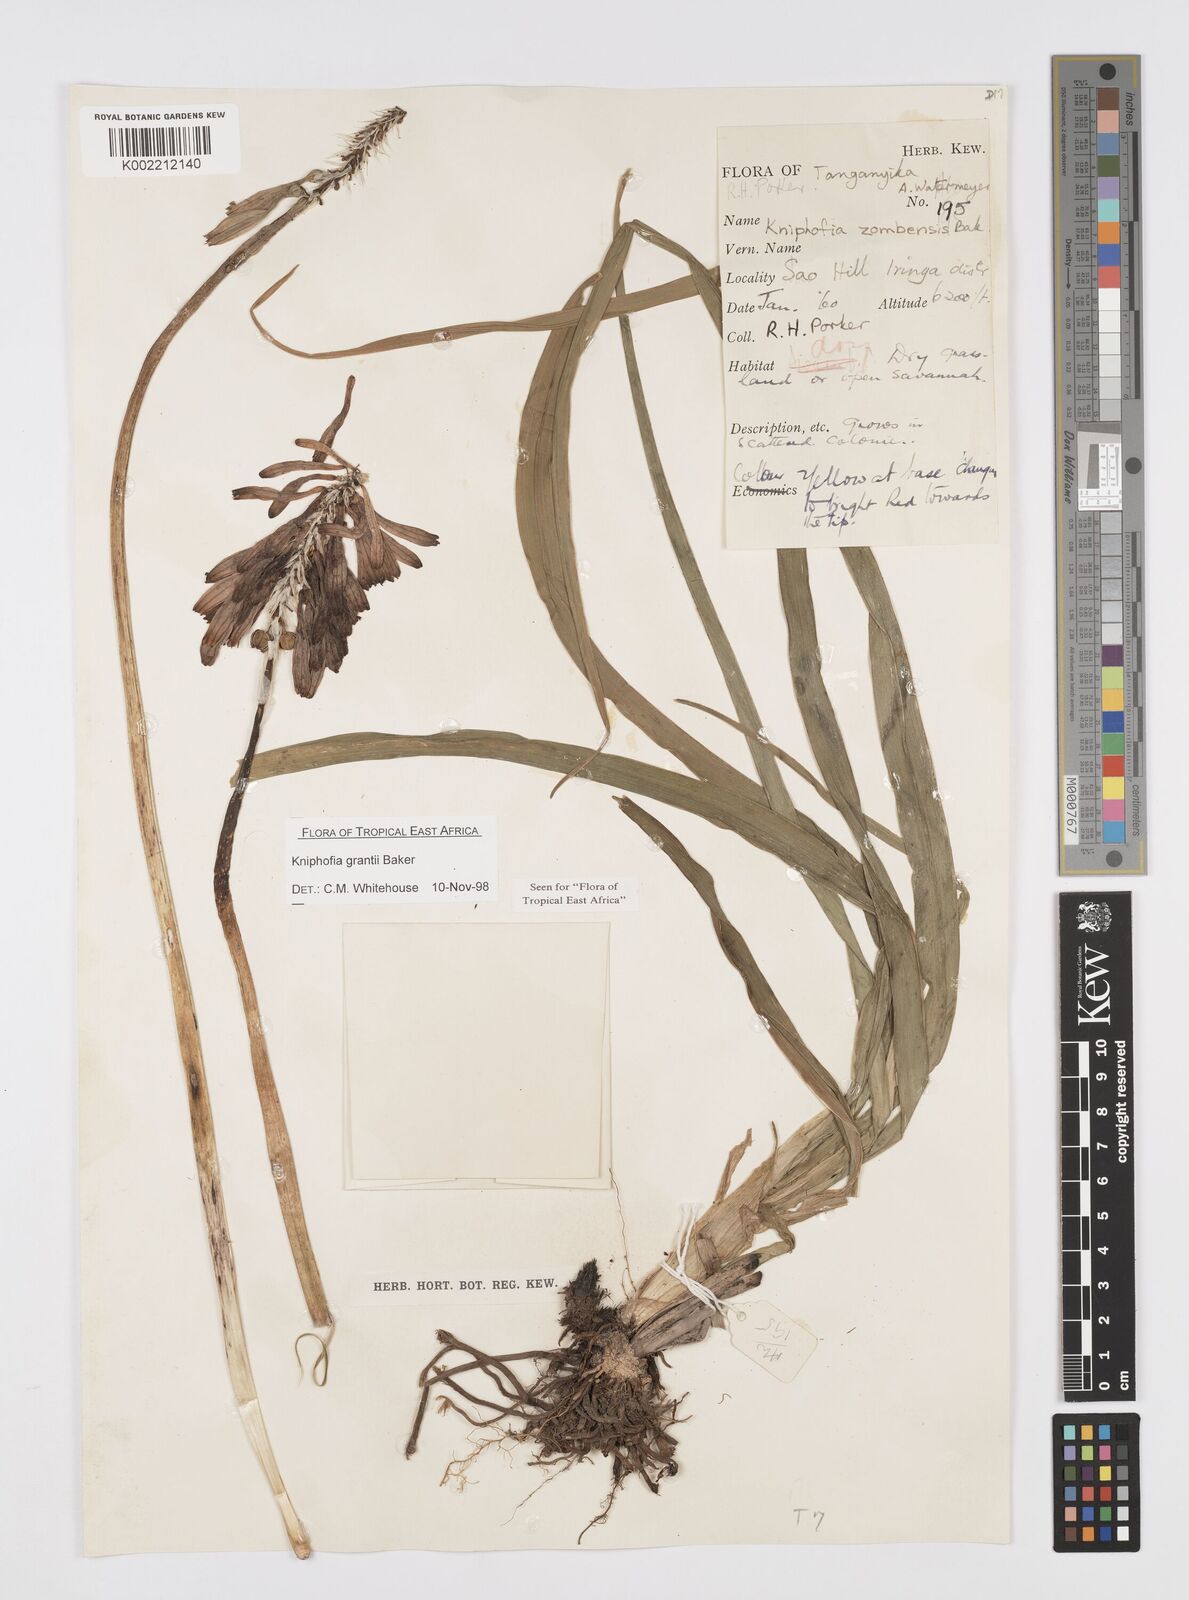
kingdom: Plantae
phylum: Tracheophyta
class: Liliopsida
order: Asparagales
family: Asphodelaceae
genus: Kniphofia
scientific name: Kniphofia grantii
